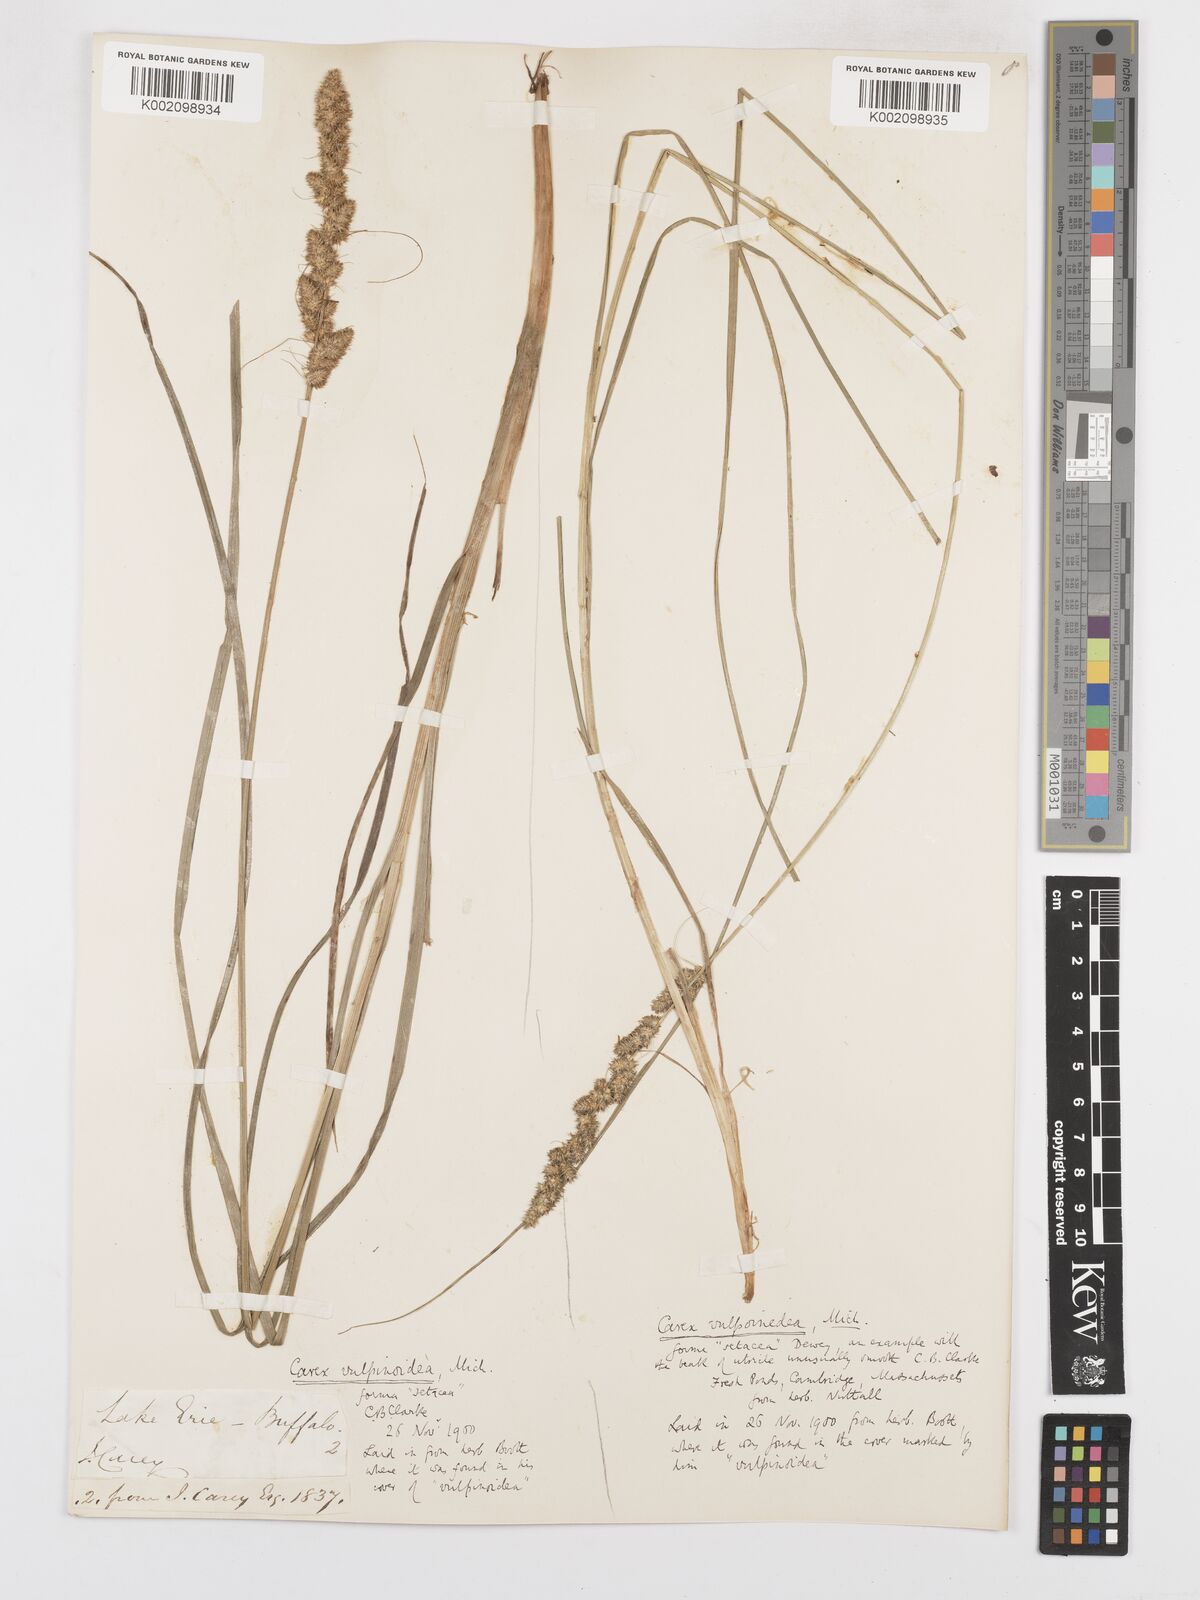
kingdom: Plantae
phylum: Tracheophyta
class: Liliopsida
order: Poales
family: Cyperaceae
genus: Carex
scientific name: Carex vulpinoidea
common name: American fox-sedge
